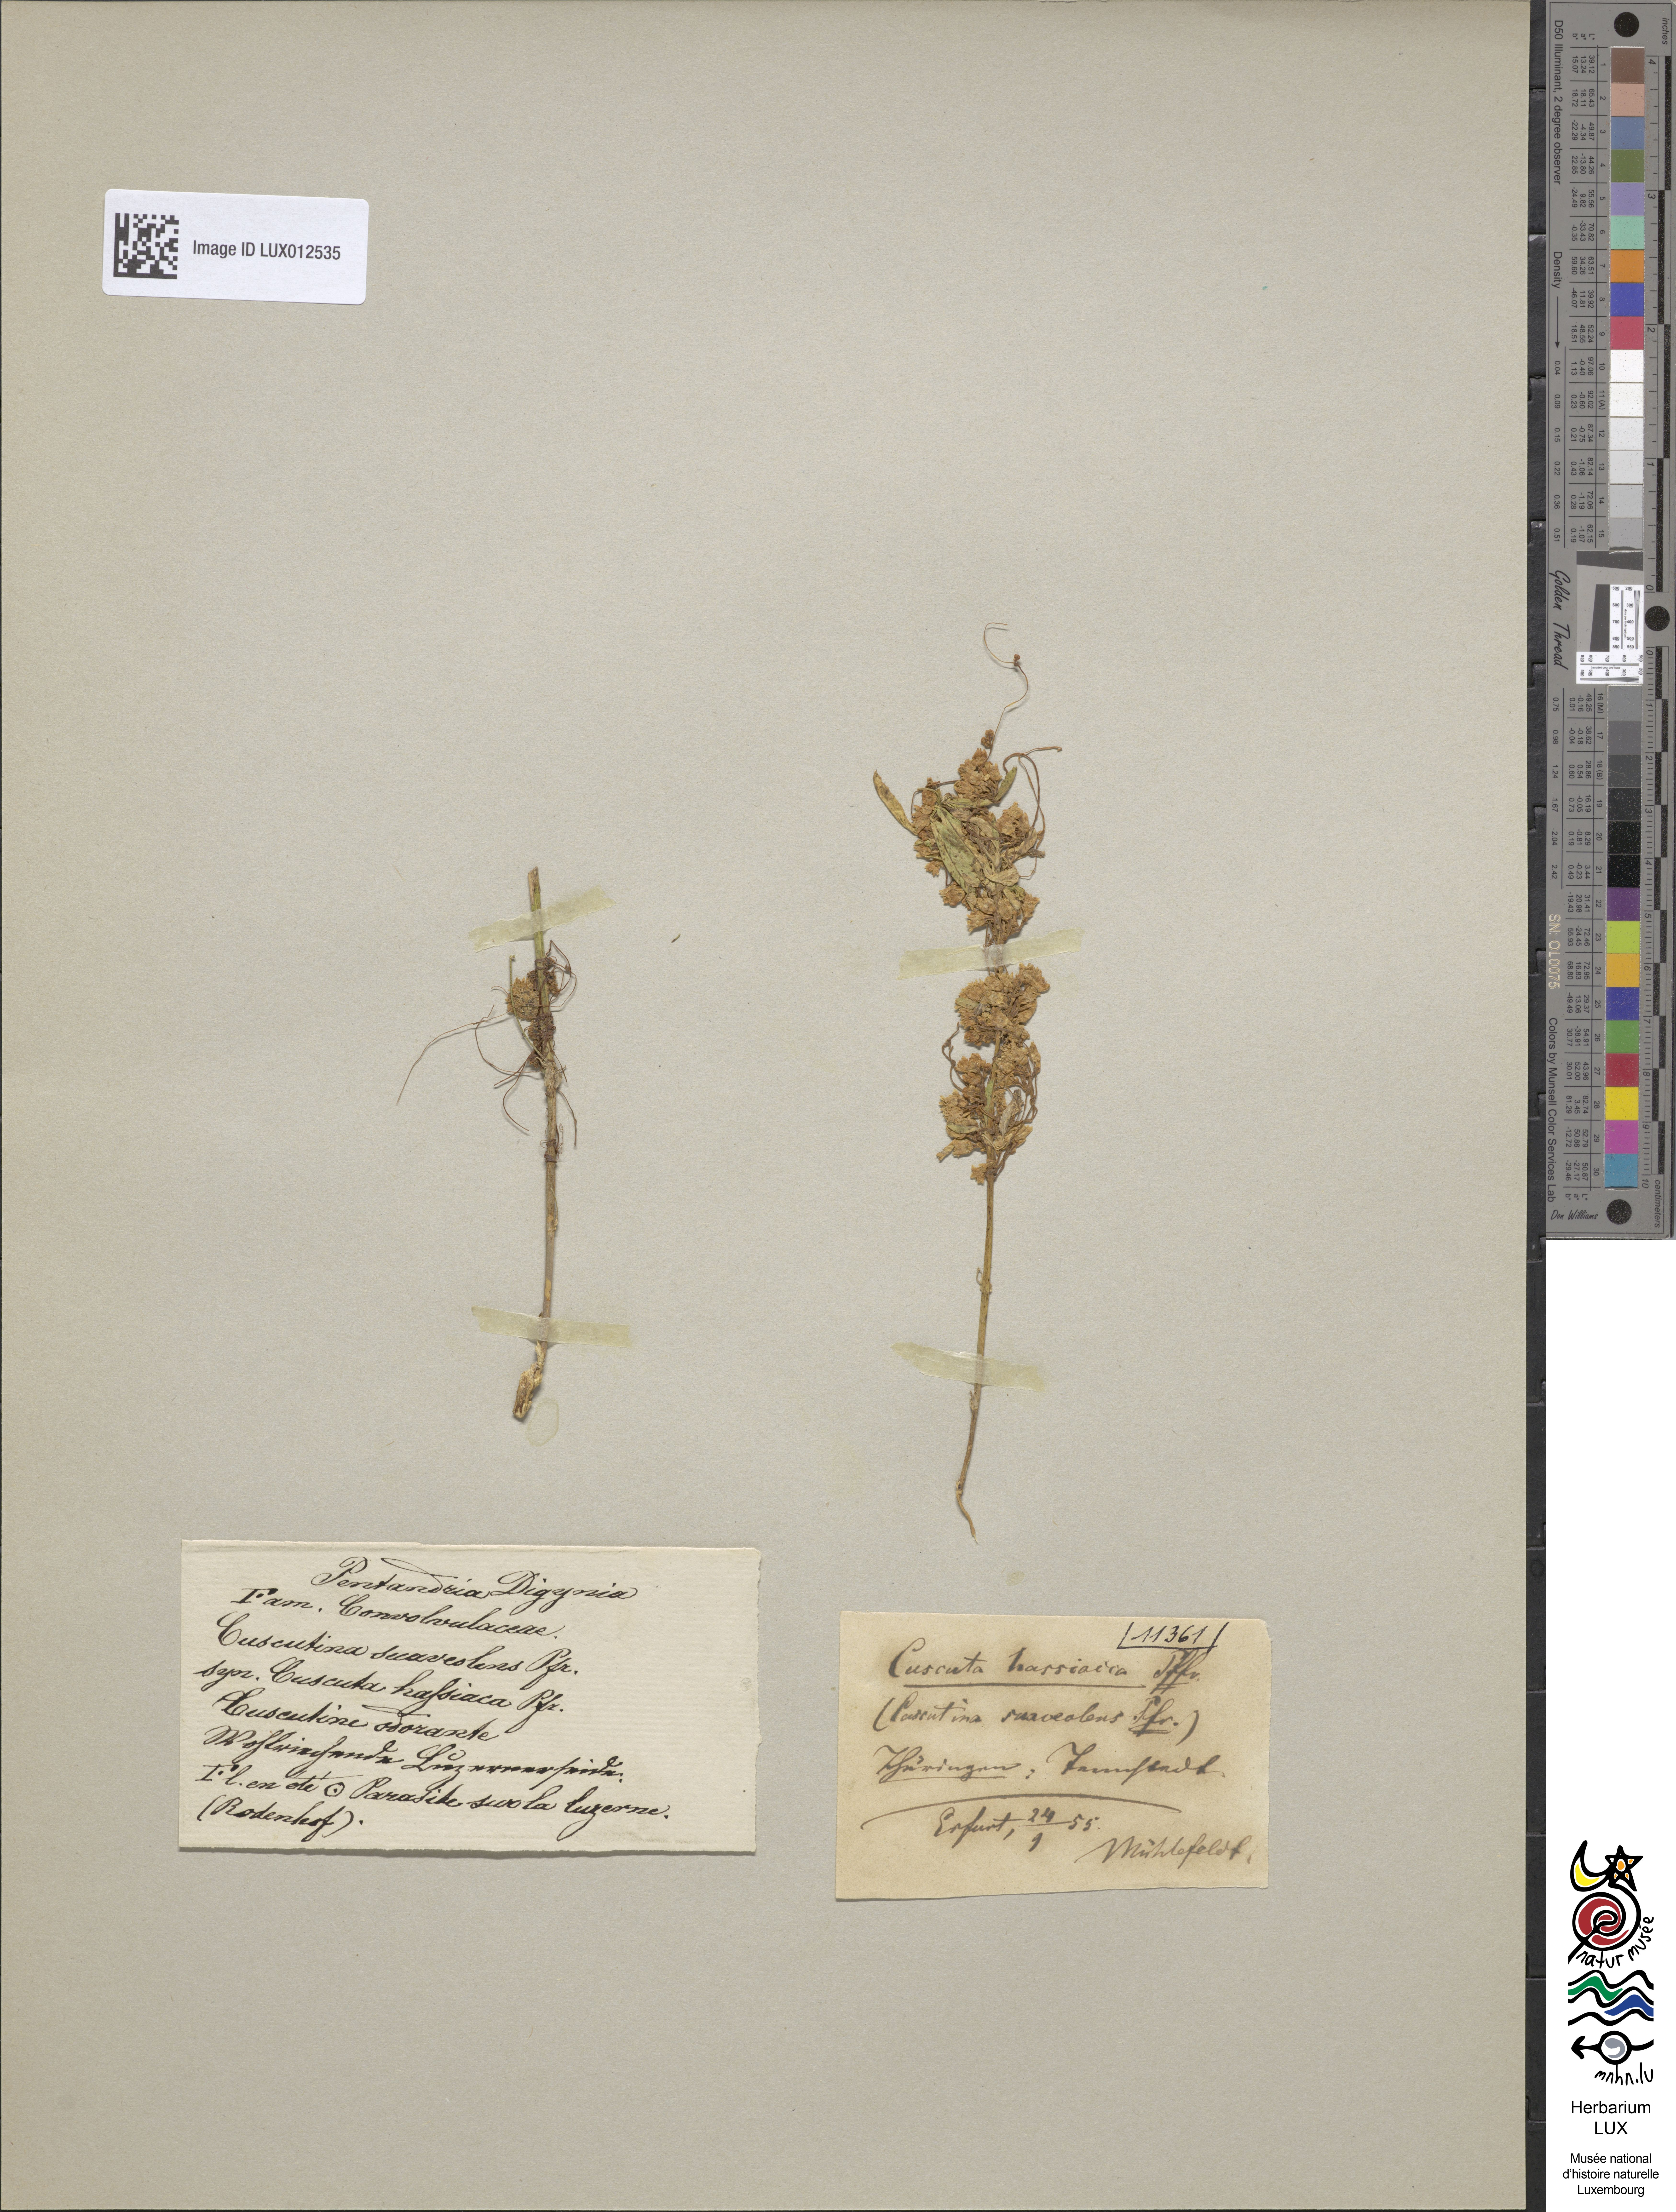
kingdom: Plantae
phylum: Tracheophyta
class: Magnoliopsida
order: Solanales
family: Convolvulaceae
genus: Cuscuta
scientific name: Cuscuta suaveolens
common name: Fringed dodder
